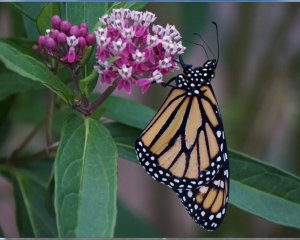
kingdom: Animalia
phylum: Arthropoda
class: Insecta
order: Lepidoptera
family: Nymphalidae
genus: Danaus
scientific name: Danaus plexippus
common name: Monarch
